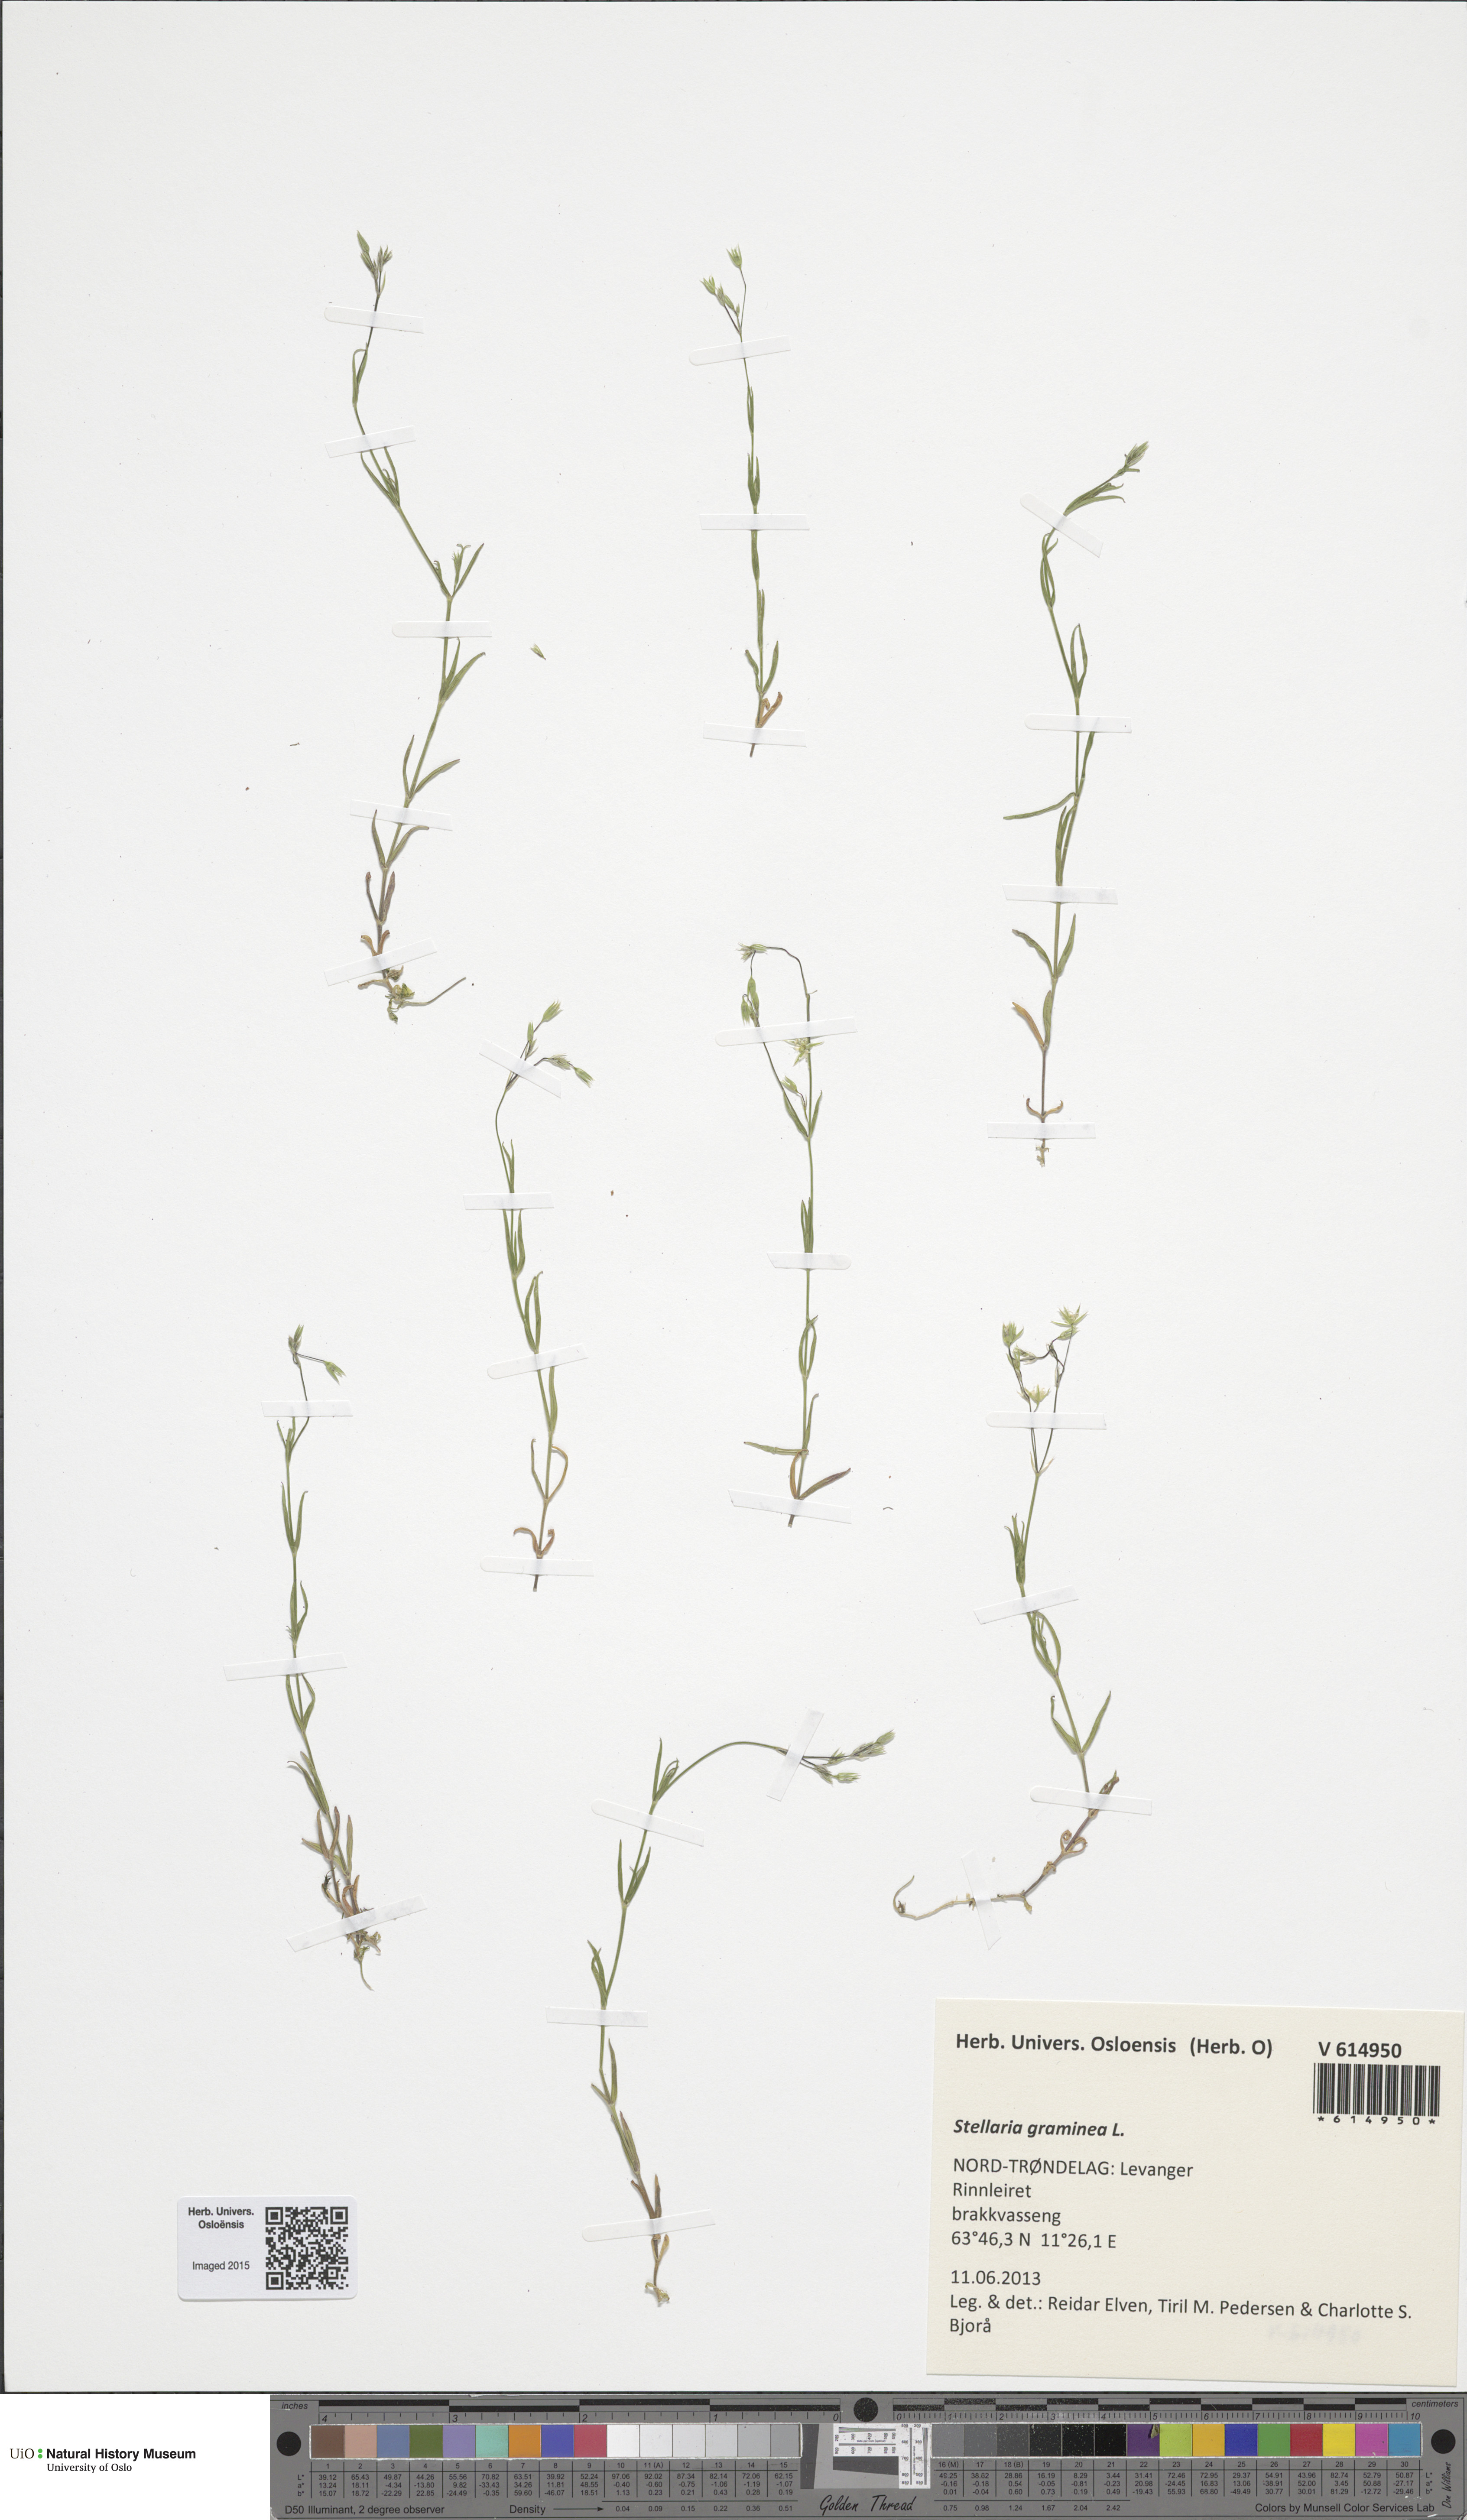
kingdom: Plantae
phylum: Tracheophyta
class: Magnoliopsida
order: Caryophyllales
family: Caryophyllaceae
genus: Stellaria
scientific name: Stellaria graminea
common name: Grass-like starwort
